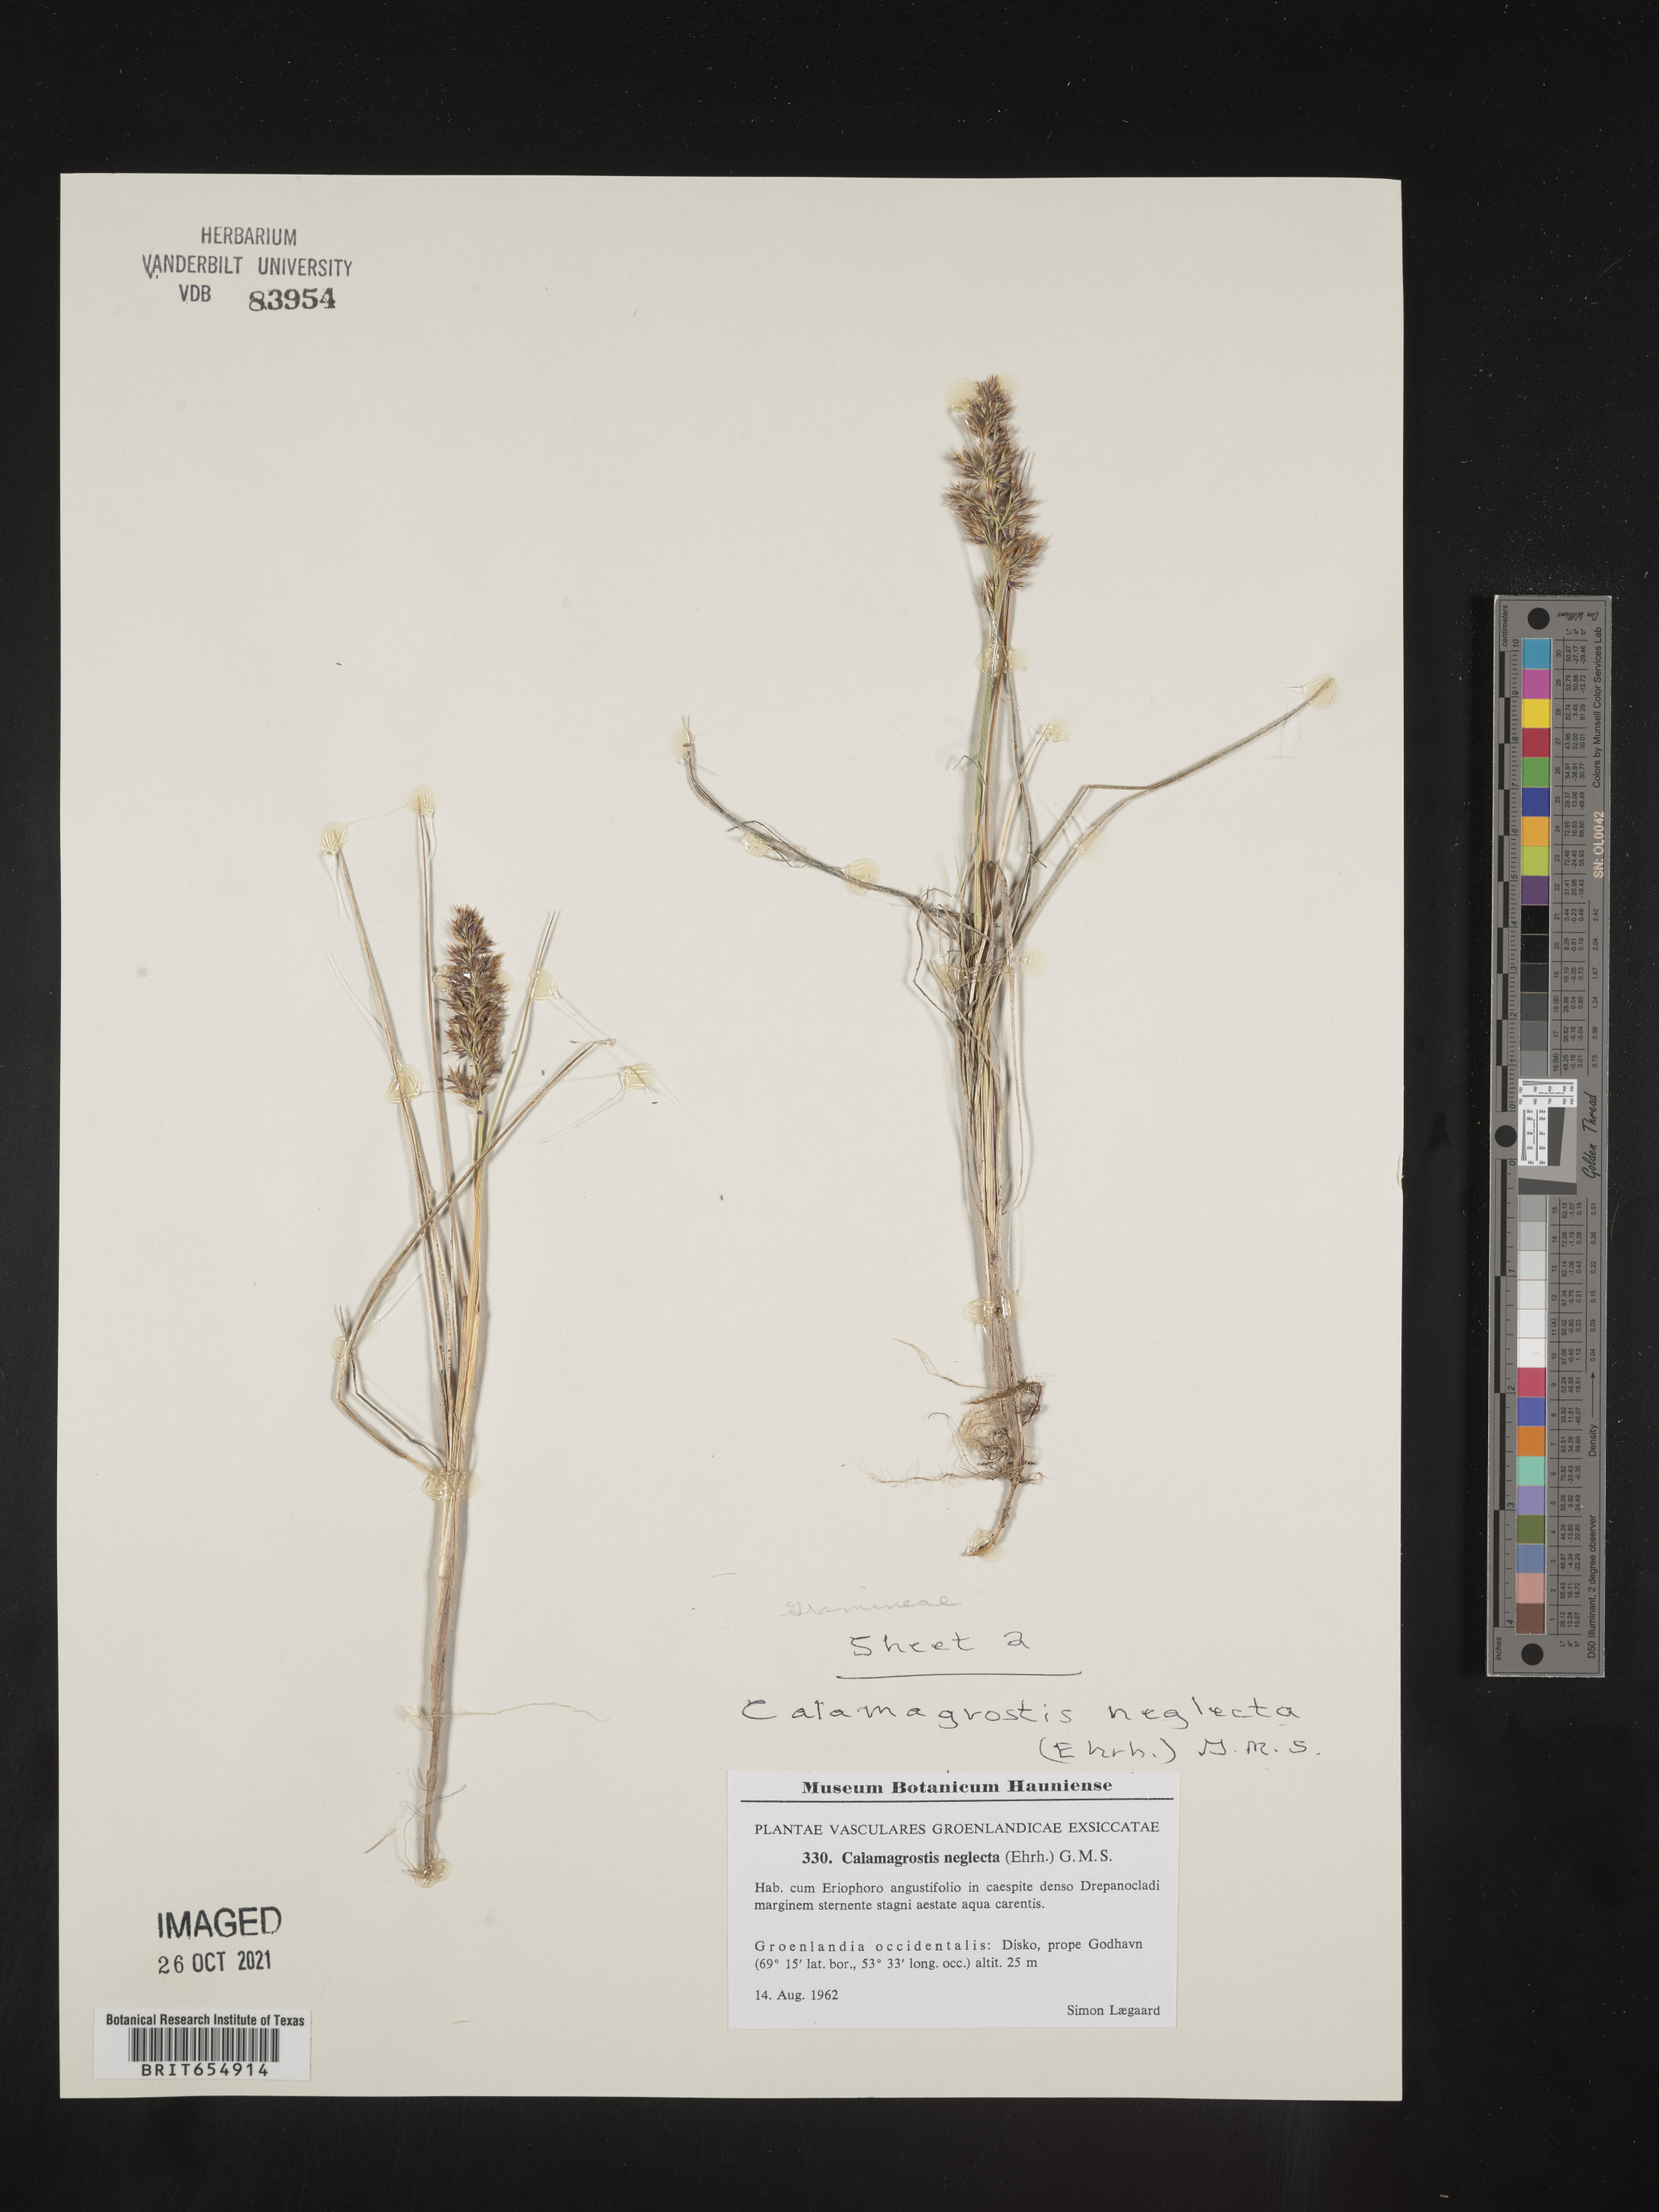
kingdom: Plantae
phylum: Tracheophyta
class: Liliopsida
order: Poales
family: Poaceae
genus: Calamagrostis
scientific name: Calamagrostis
